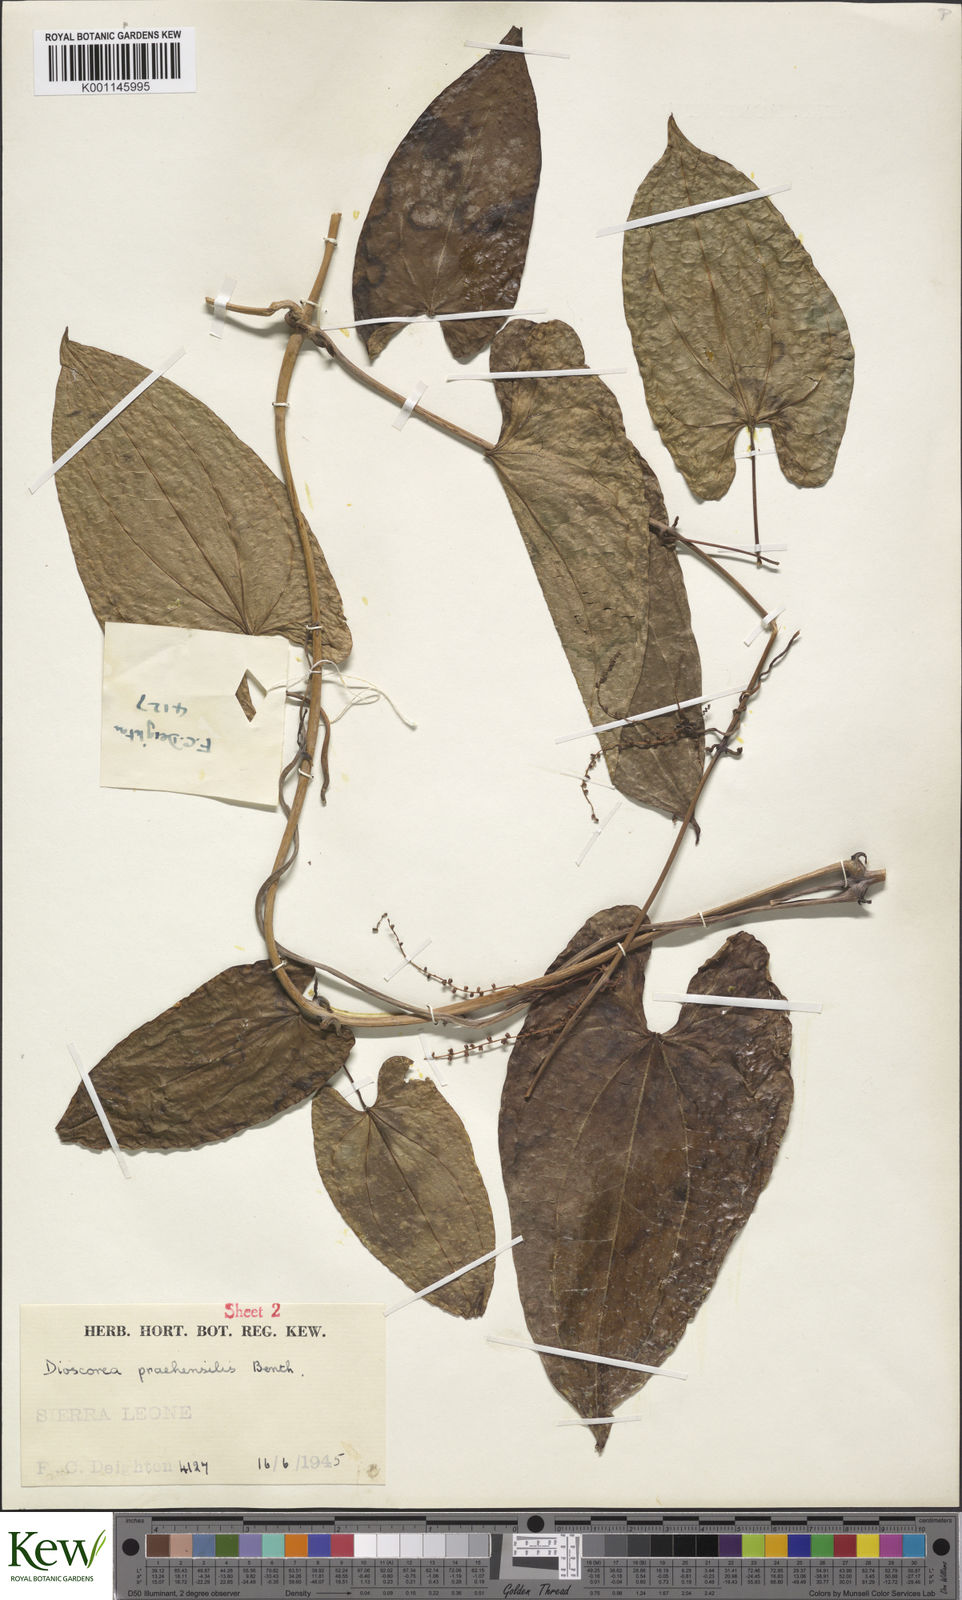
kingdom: Plantae
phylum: Tracheophyta
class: Liliopsida
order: Dioscoreales
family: Dioscoreaceae
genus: Dioscorea
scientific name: Dioscorea praehensilis
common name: Bush yam
